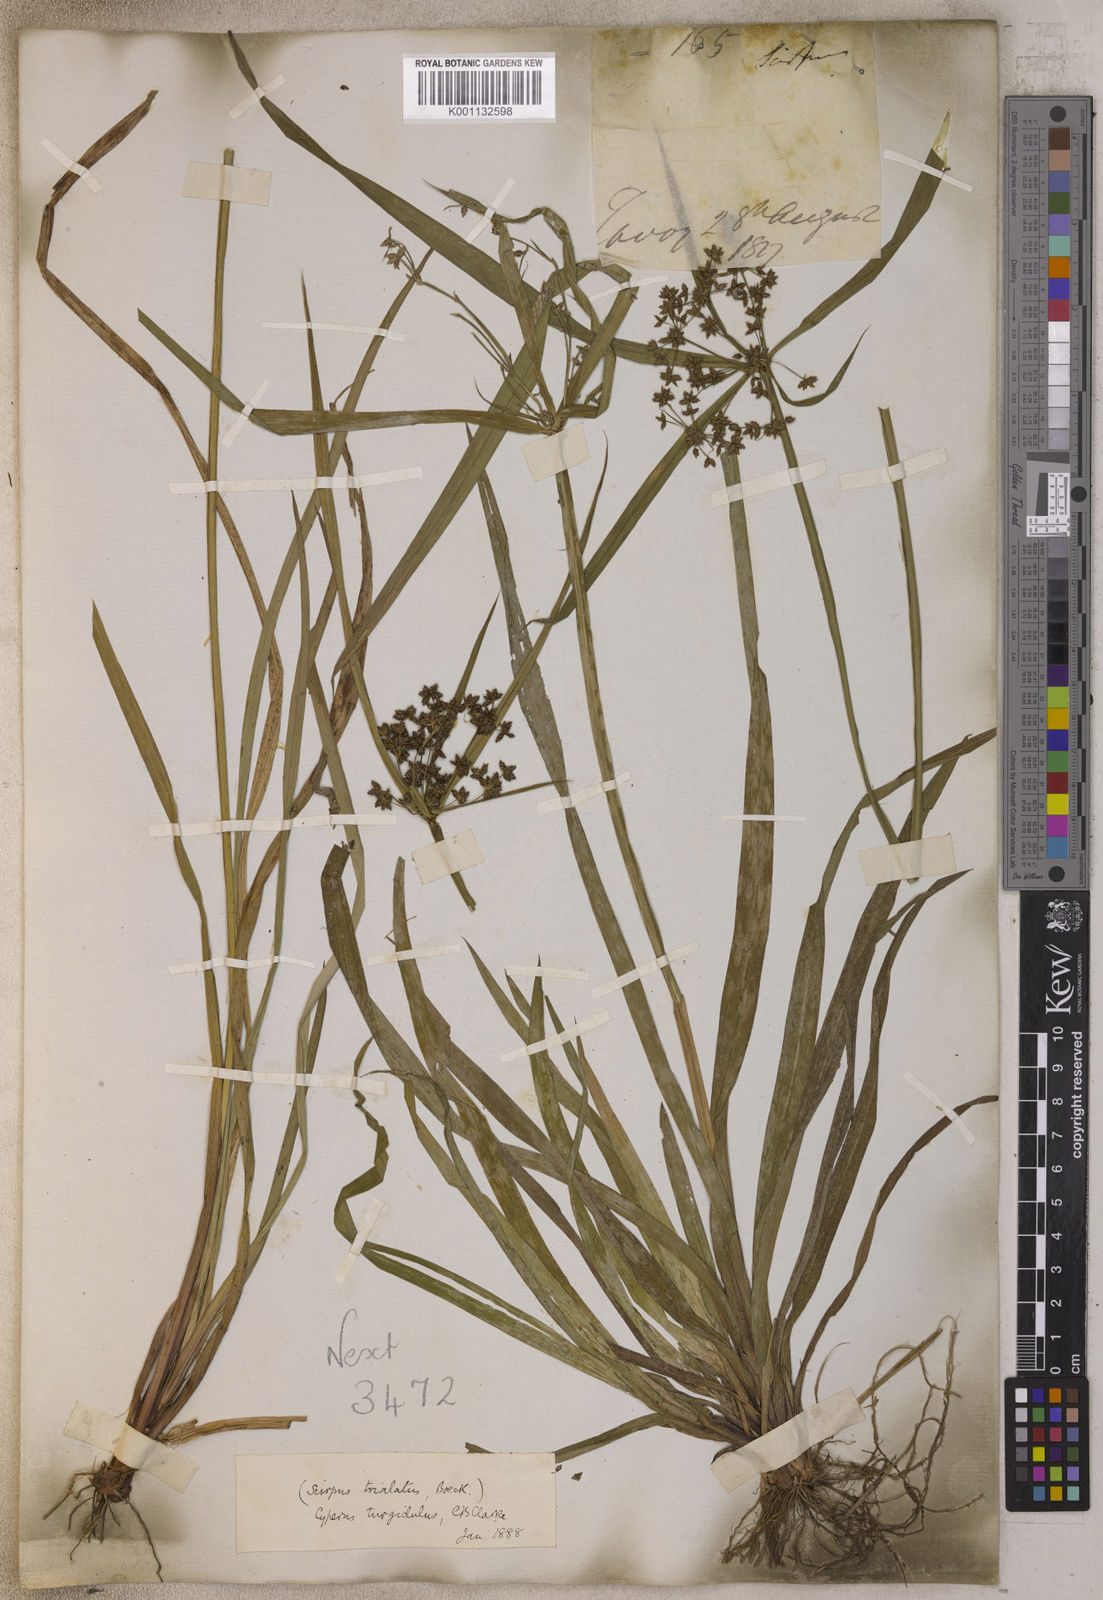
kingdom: Plantae
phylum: Tracheophyta
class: Liliopsida
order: Poales
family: Cyperaceae
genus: Cyperus
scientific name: Cyperus trialatus
